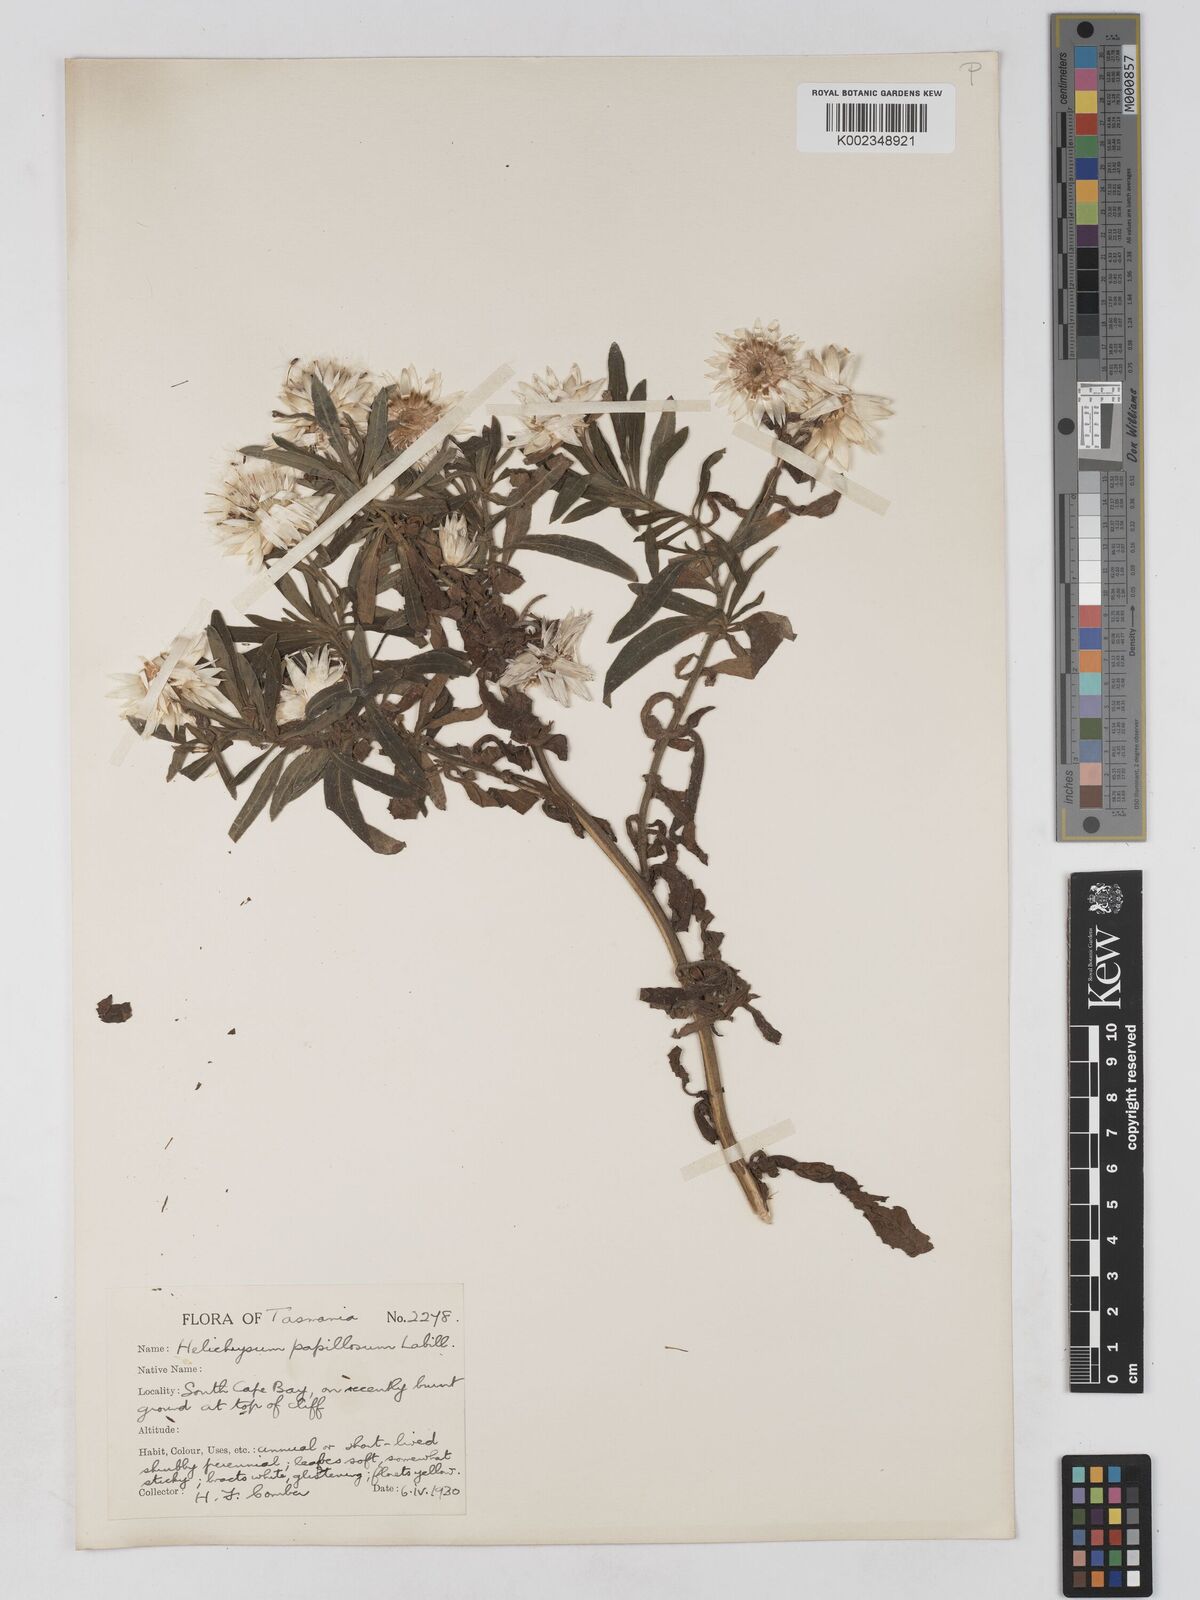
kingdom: Plantae
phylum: Tracheophyta
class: Magnoliopsida
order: Asterales
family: Asteraceae
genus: Xerochrysum
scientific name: Xerochrysum papillosum
